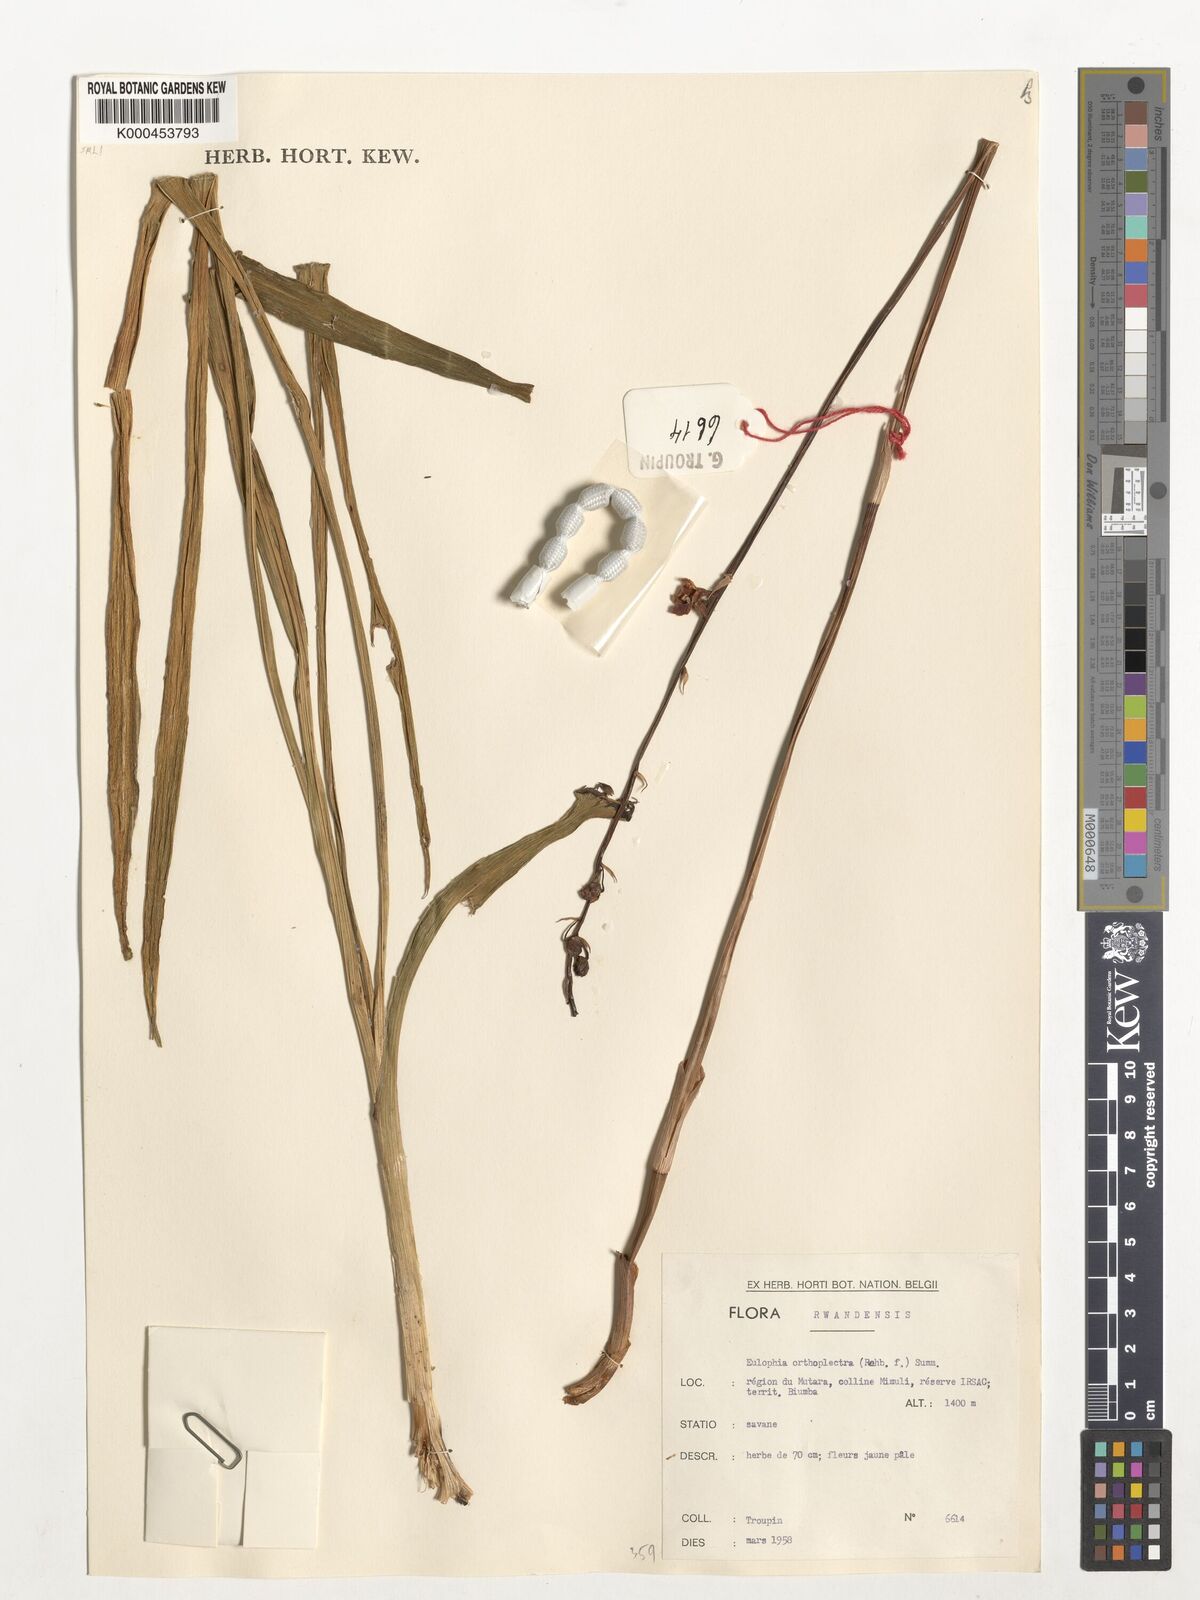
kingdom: Plantae
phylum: Tracheophyta
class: Liliopsida
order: Asparagales
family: Orchidaceae
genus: Eulophia
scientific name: Eulophia speciosa
